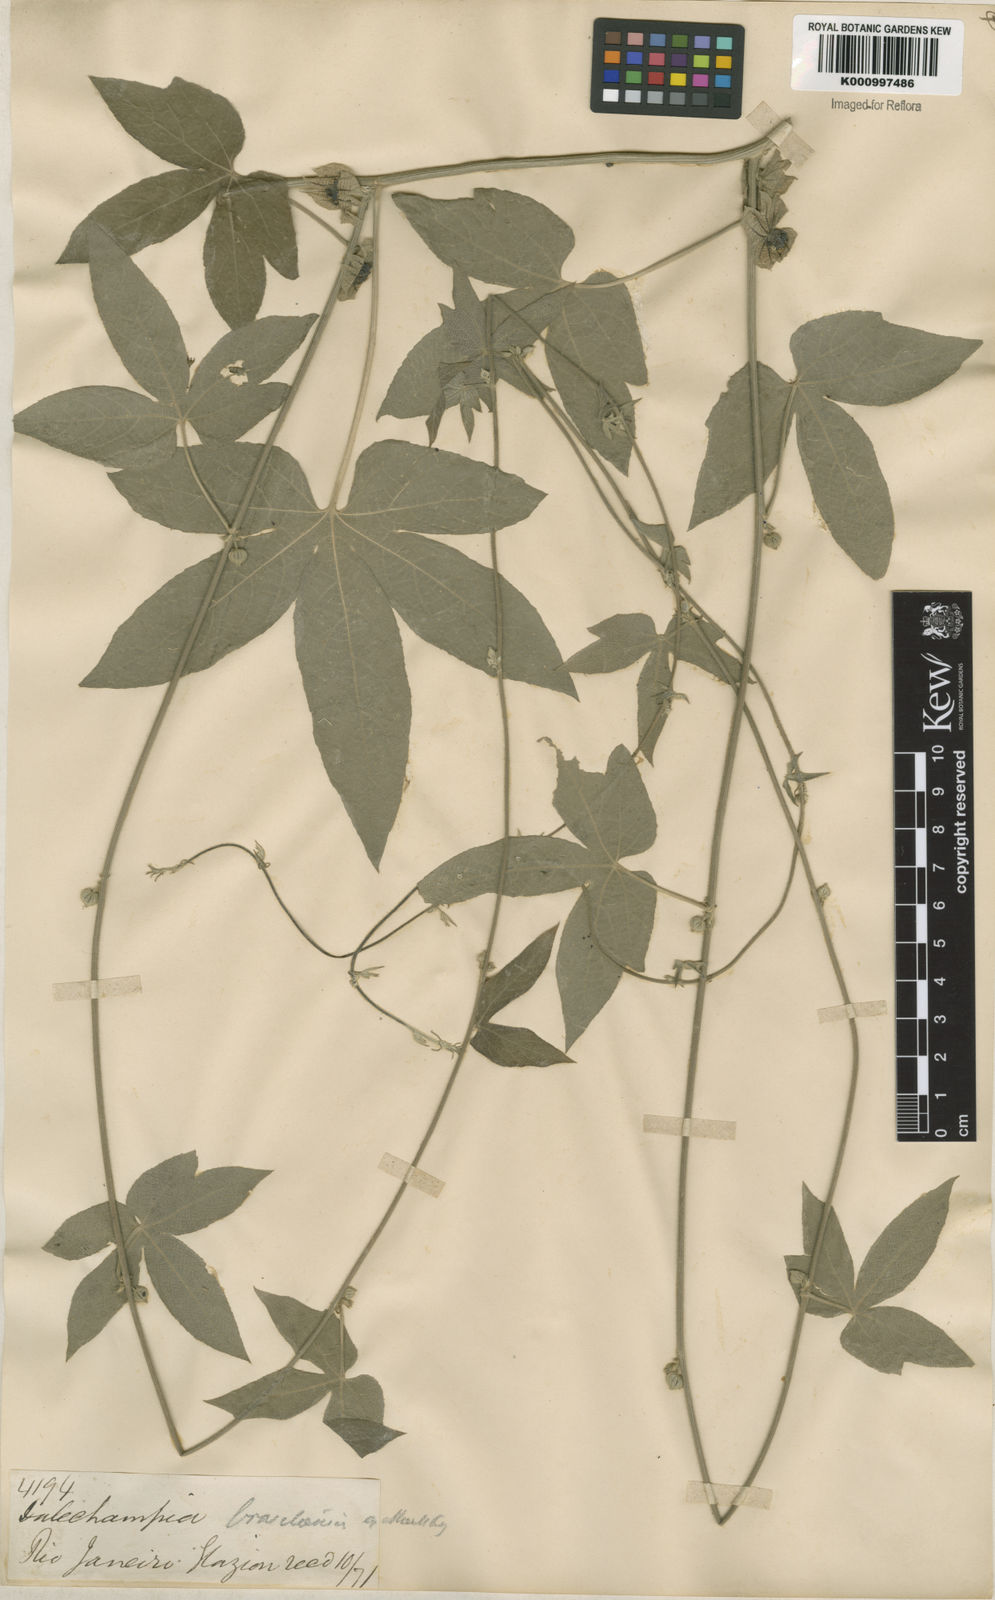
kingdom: Plantae
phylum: Tracheophyta
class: Magnoliopsida
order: Malpighiales
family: Euphorbiaceae
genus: Dalechampia
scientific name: Dalechampia brasiliensis
